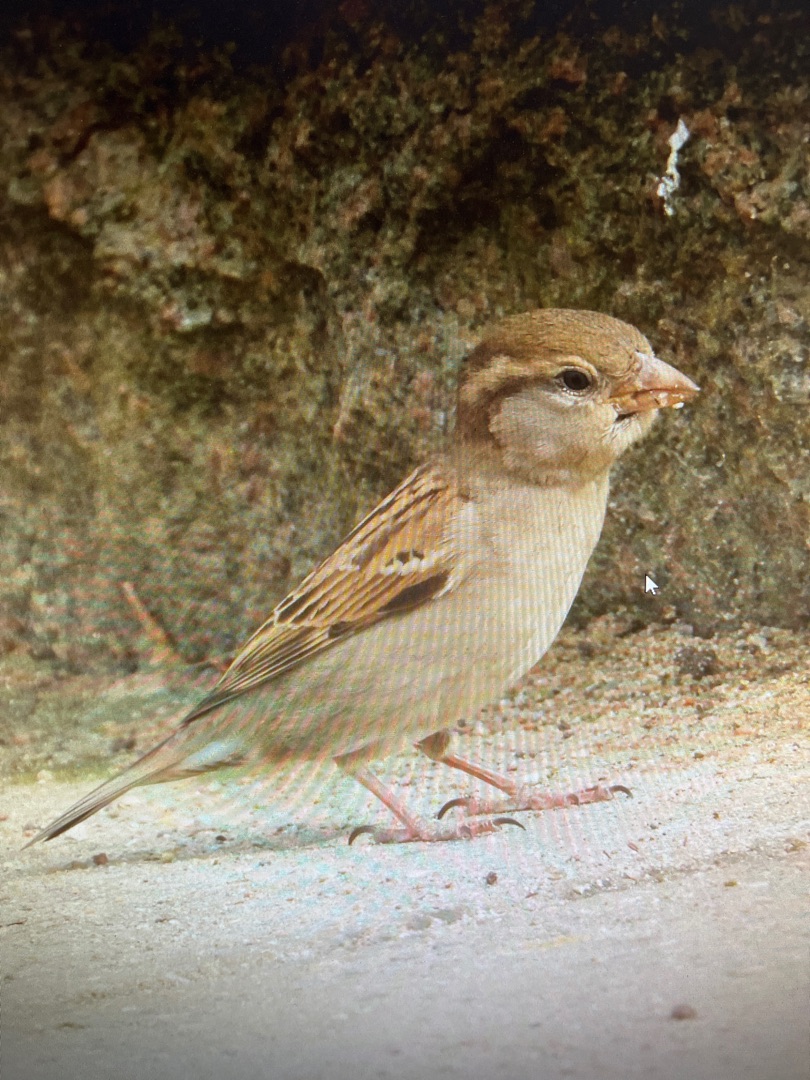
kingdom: Animalia
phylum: Chordata
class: Aves
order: Passeriformes
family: Passeridae
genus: Passer
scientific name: Passer domesticus
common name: Gråspurv
